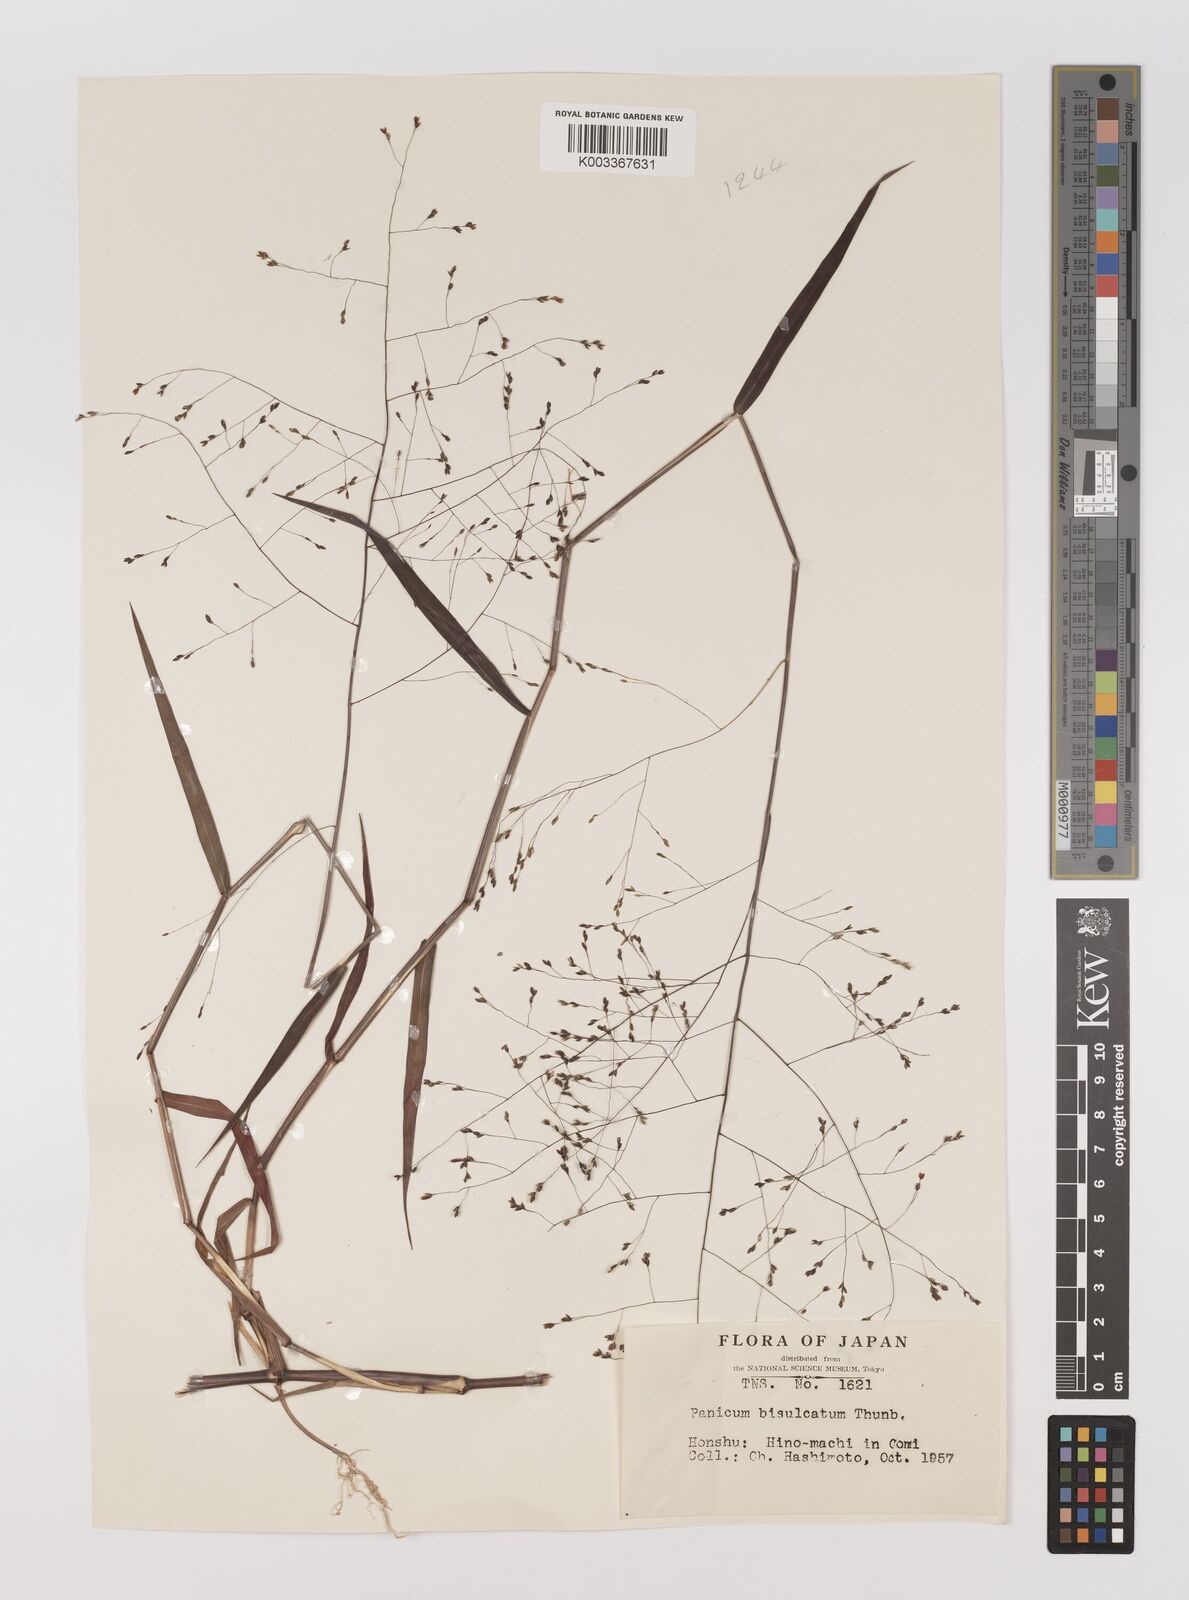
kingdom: Plantae
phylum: Tracheophyta
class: Liliopsida
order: Poales
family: Poaceae
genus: Panicum
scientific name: Panicum bisulcatum
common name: Japanese panicgrass
